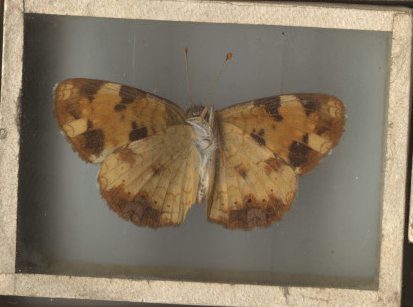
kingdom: Animalia
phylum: Arthropoda
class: Insecta
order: Lepidoptera
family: Nymphalidae
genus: Phyciodes
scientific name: Phyciodes tharos
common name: Pearl Crescent
